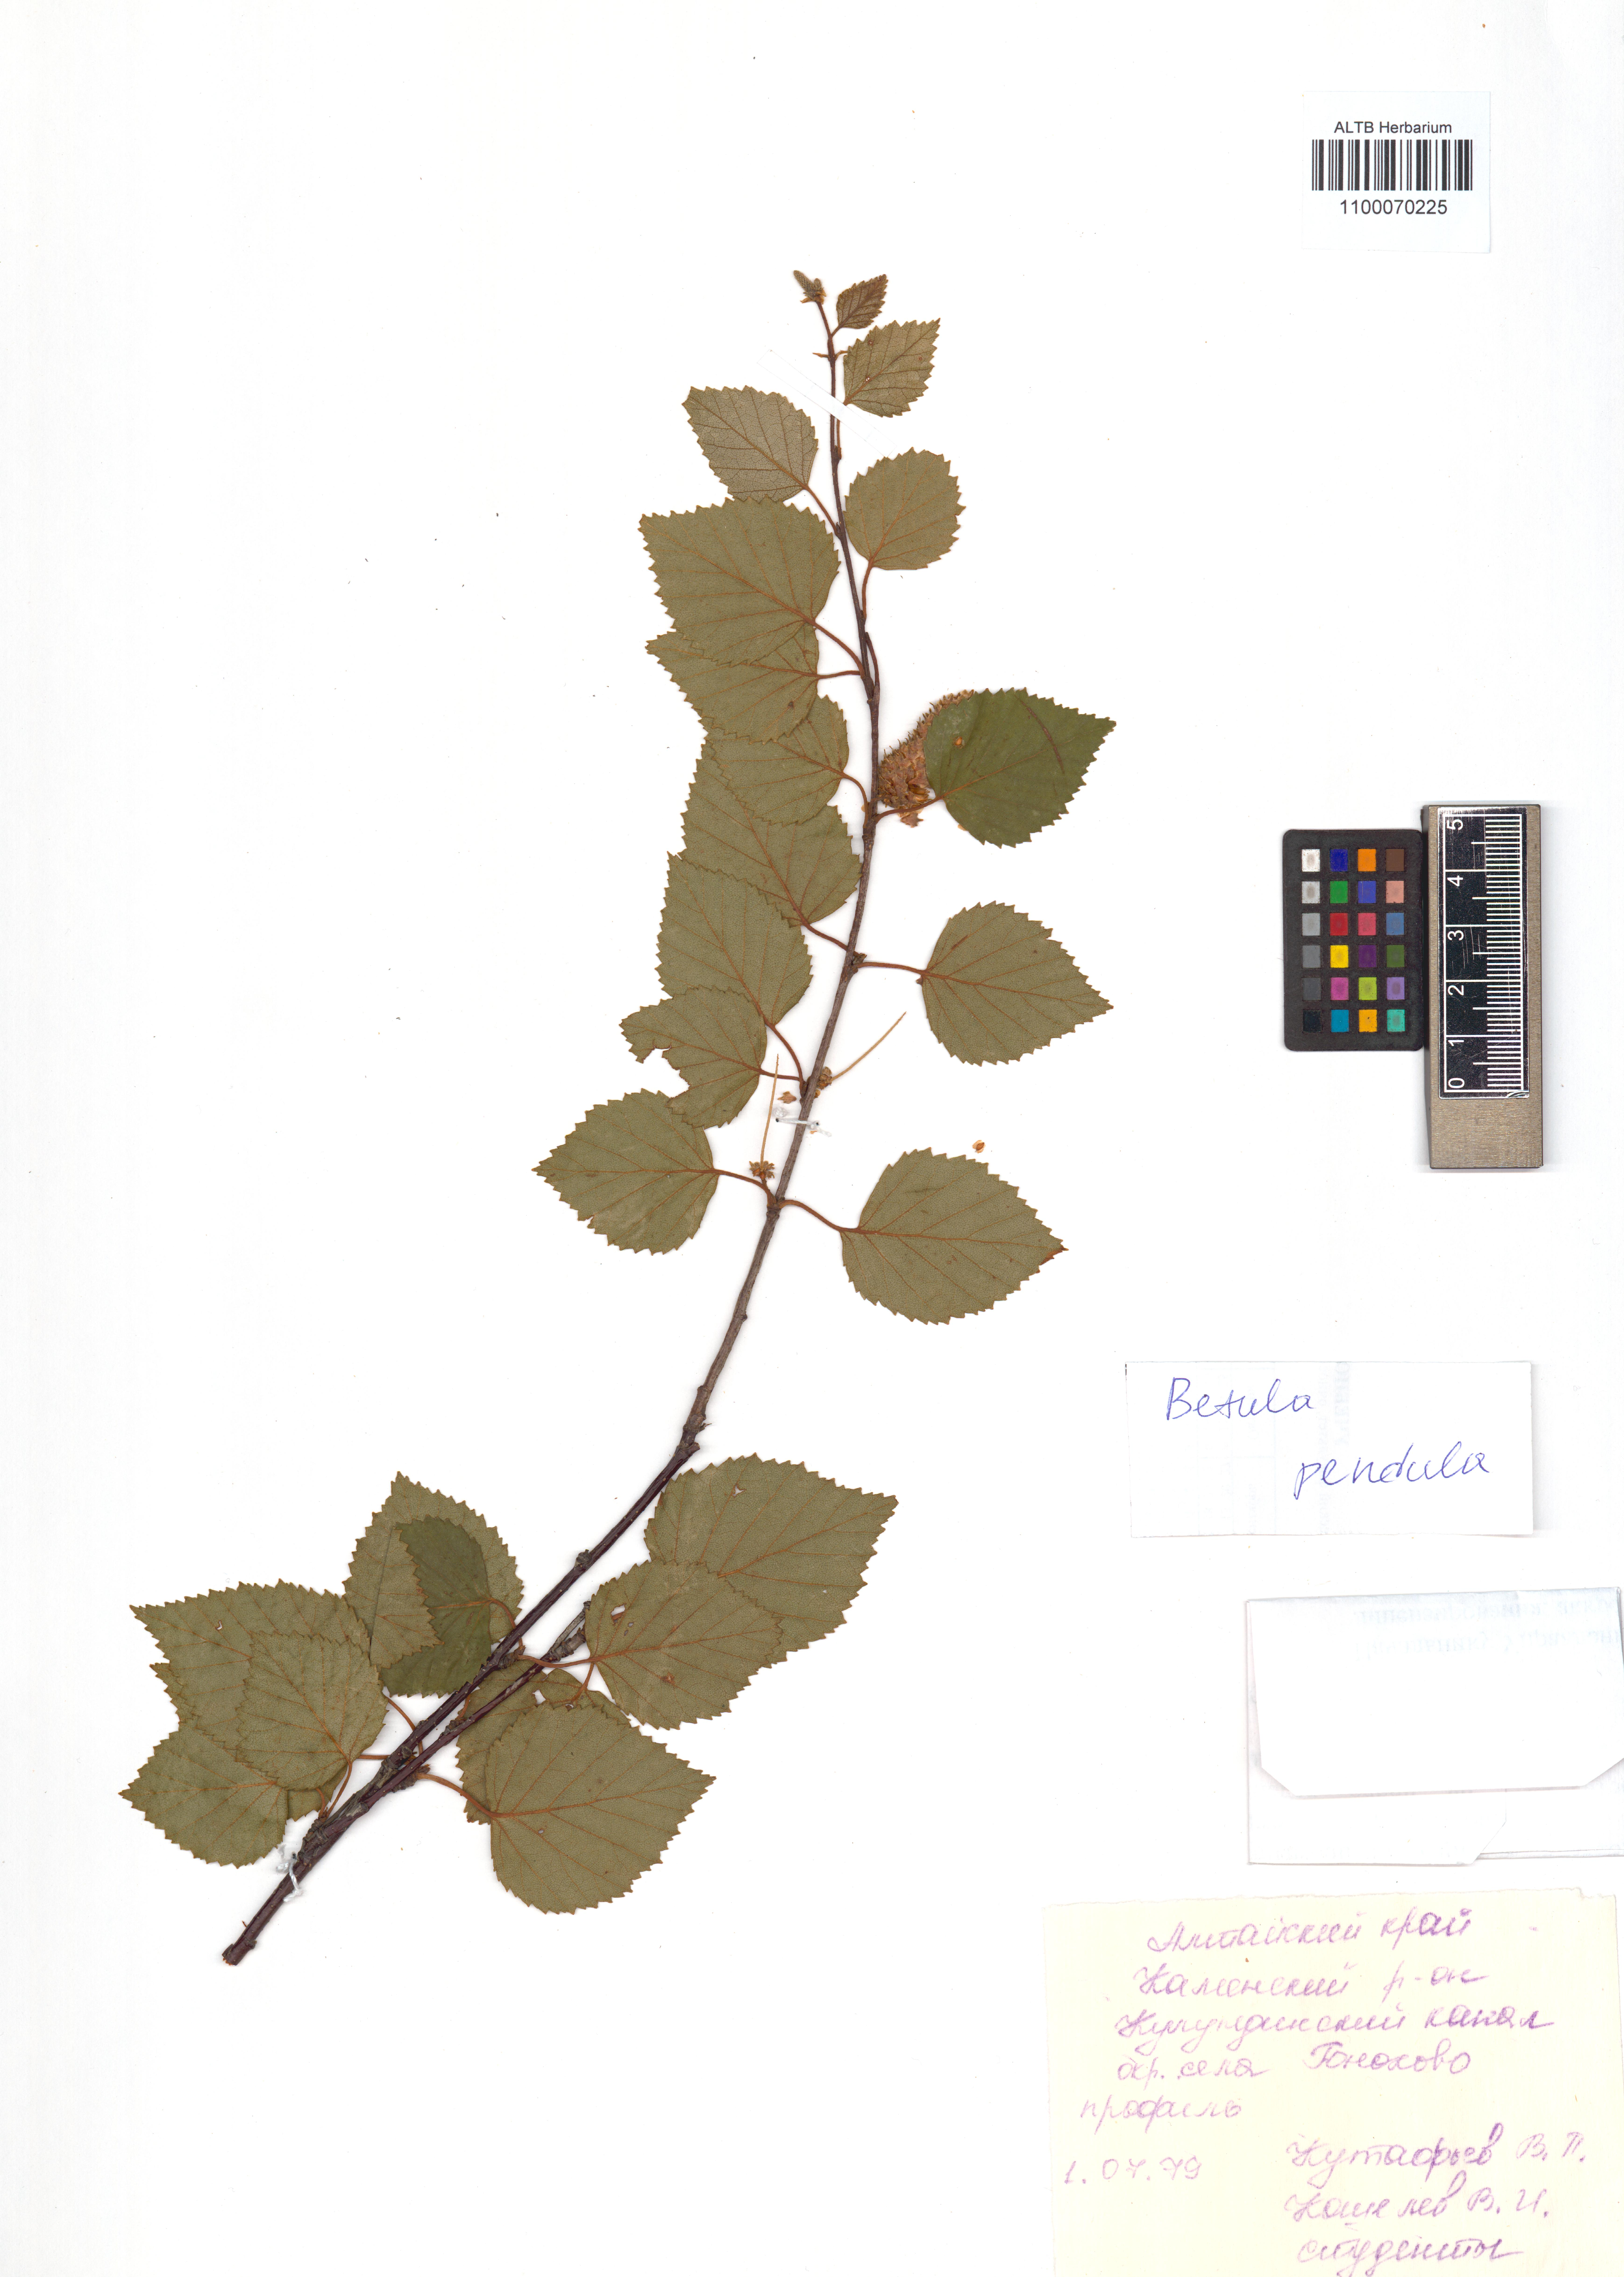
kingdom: Plantae
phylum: Tracheophyta
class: Magnoliopsida
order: Fagales
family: Betulaceae
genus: Betula
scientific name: Betula pendula
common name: Silver birch
